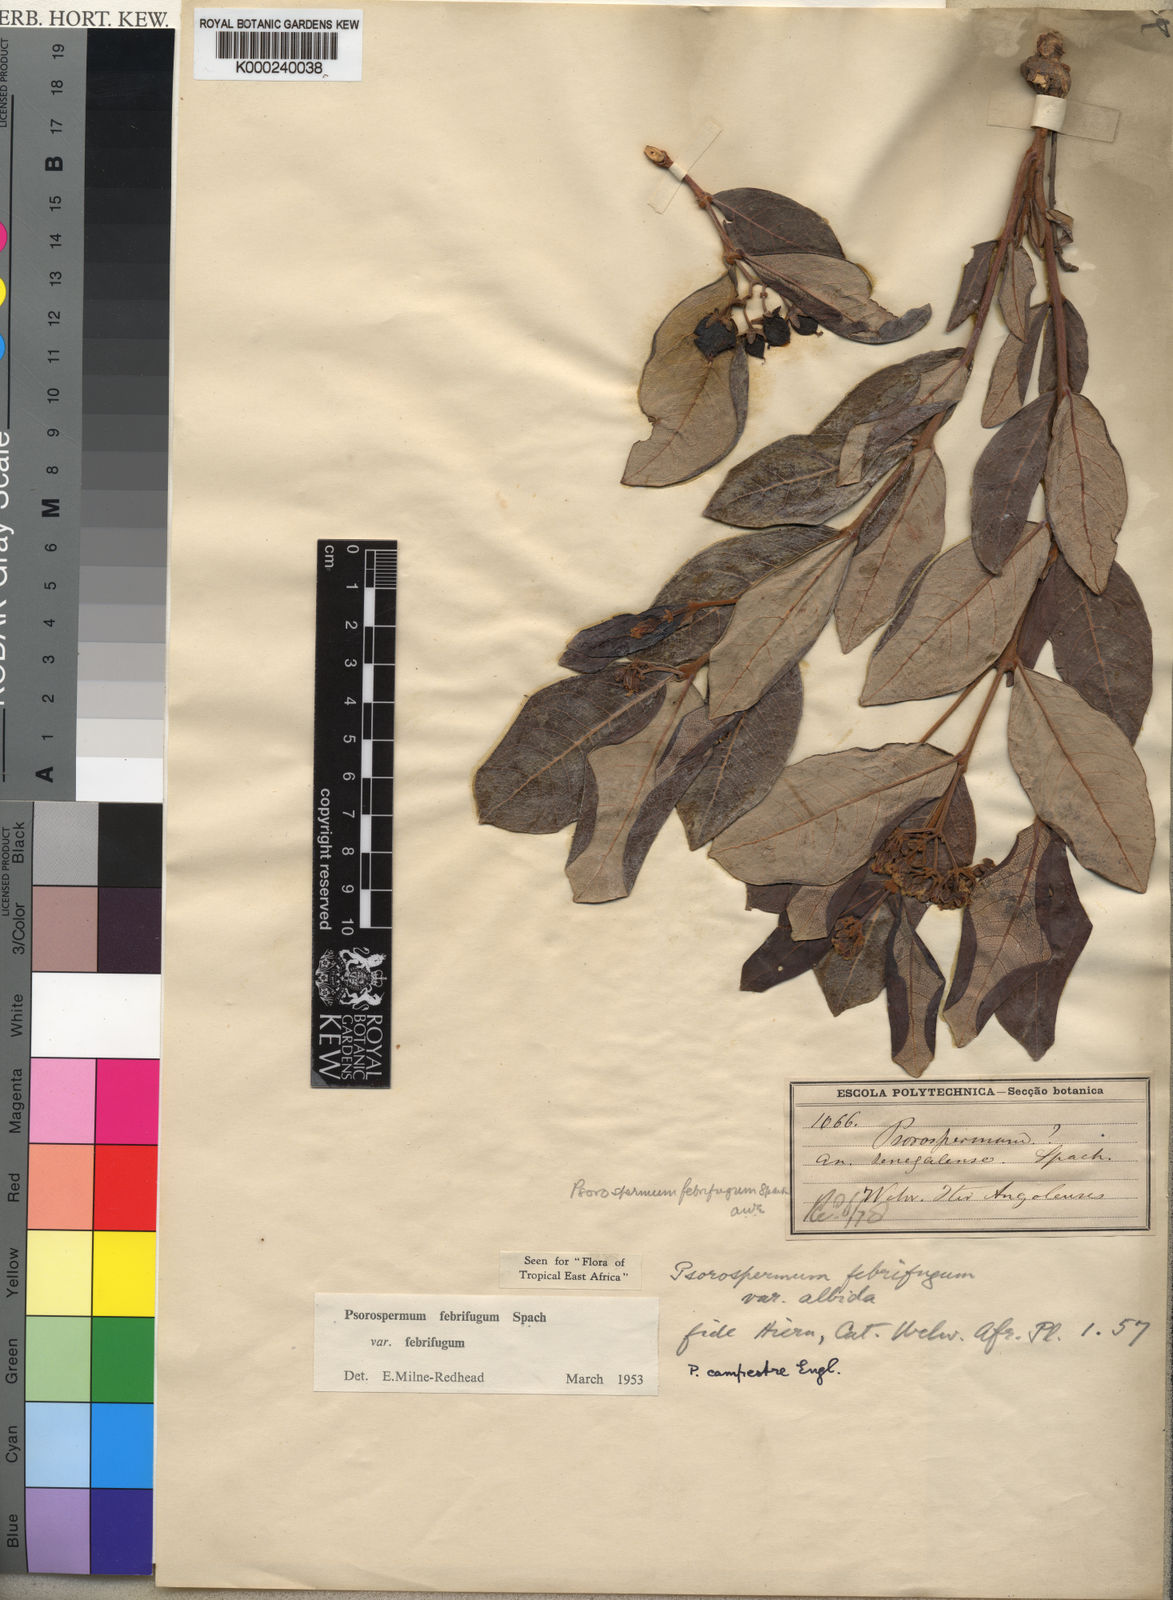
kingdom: Plantae
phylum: Tracheophyta
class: Magnoliopsida
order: Malpighiales
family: Hypericaceae
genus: Psorospermum
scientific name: Psorospermum febrifugum
